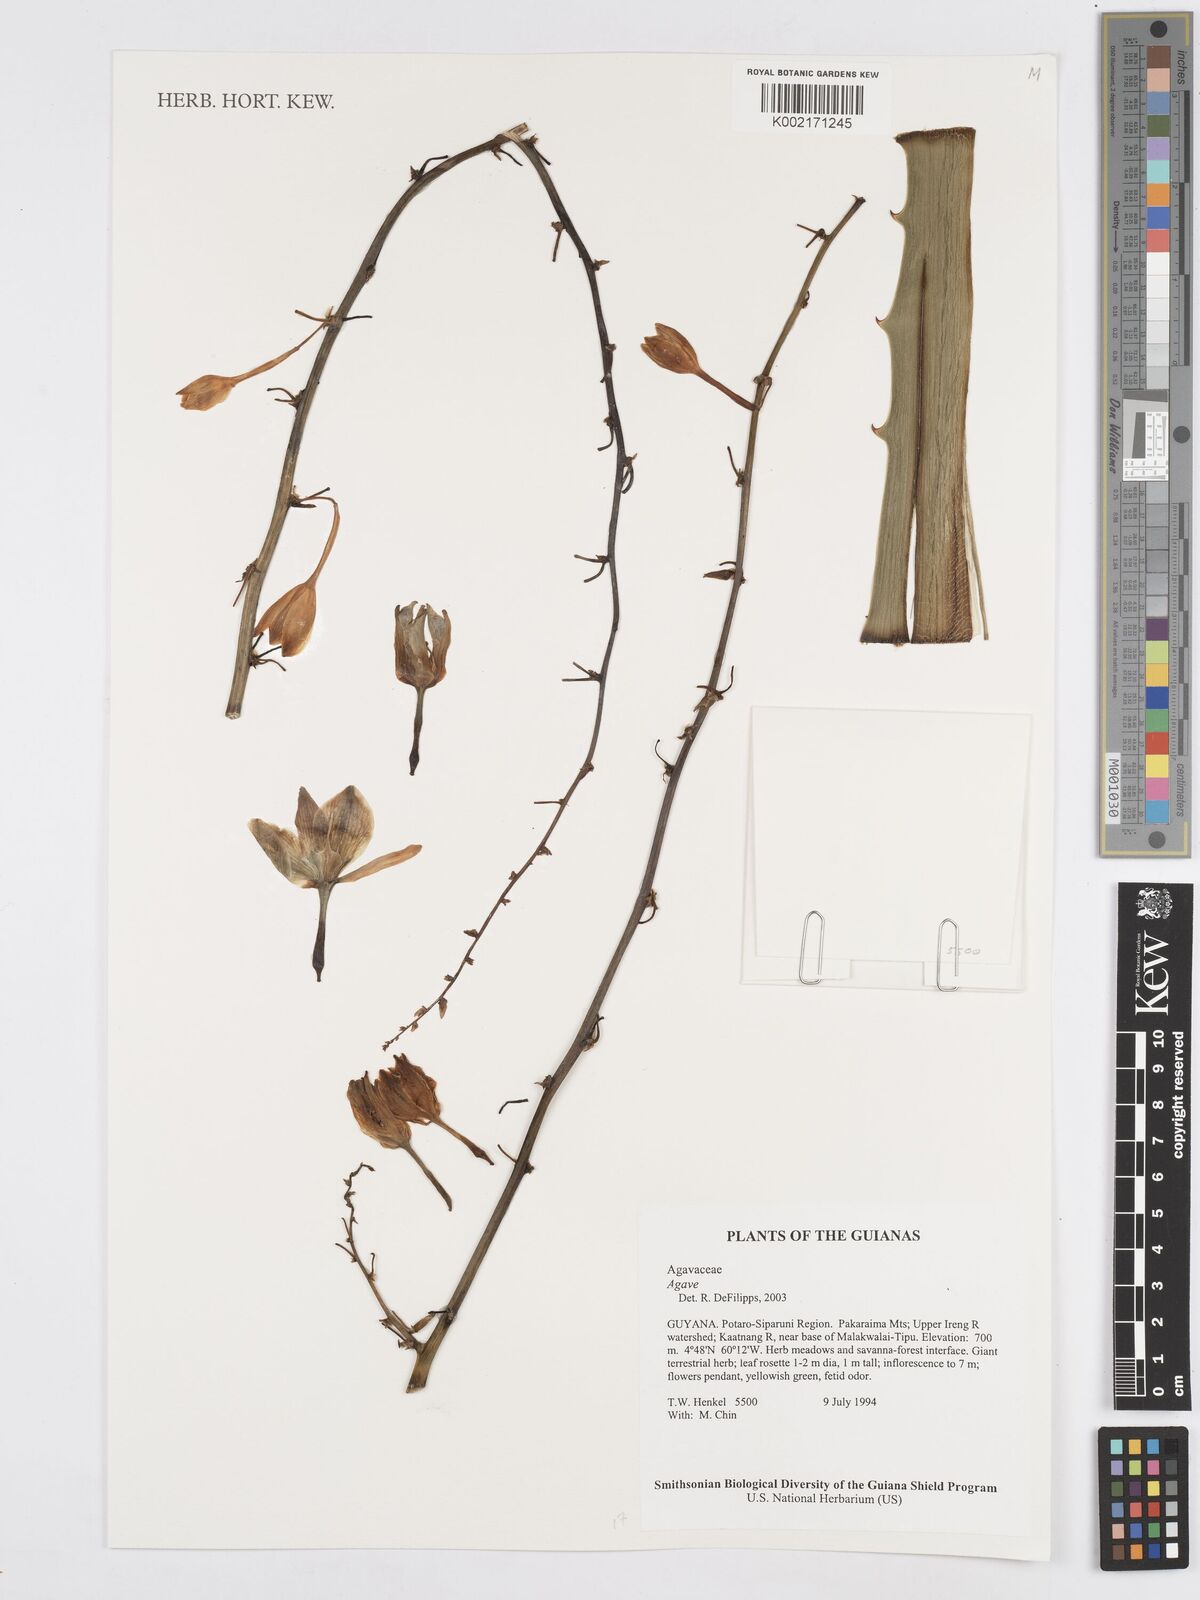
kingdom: Plantae
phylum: Tracheophyta
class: Liliopsida
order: Asparagales
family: Asparagaceae
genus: Agave
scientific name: Agave
